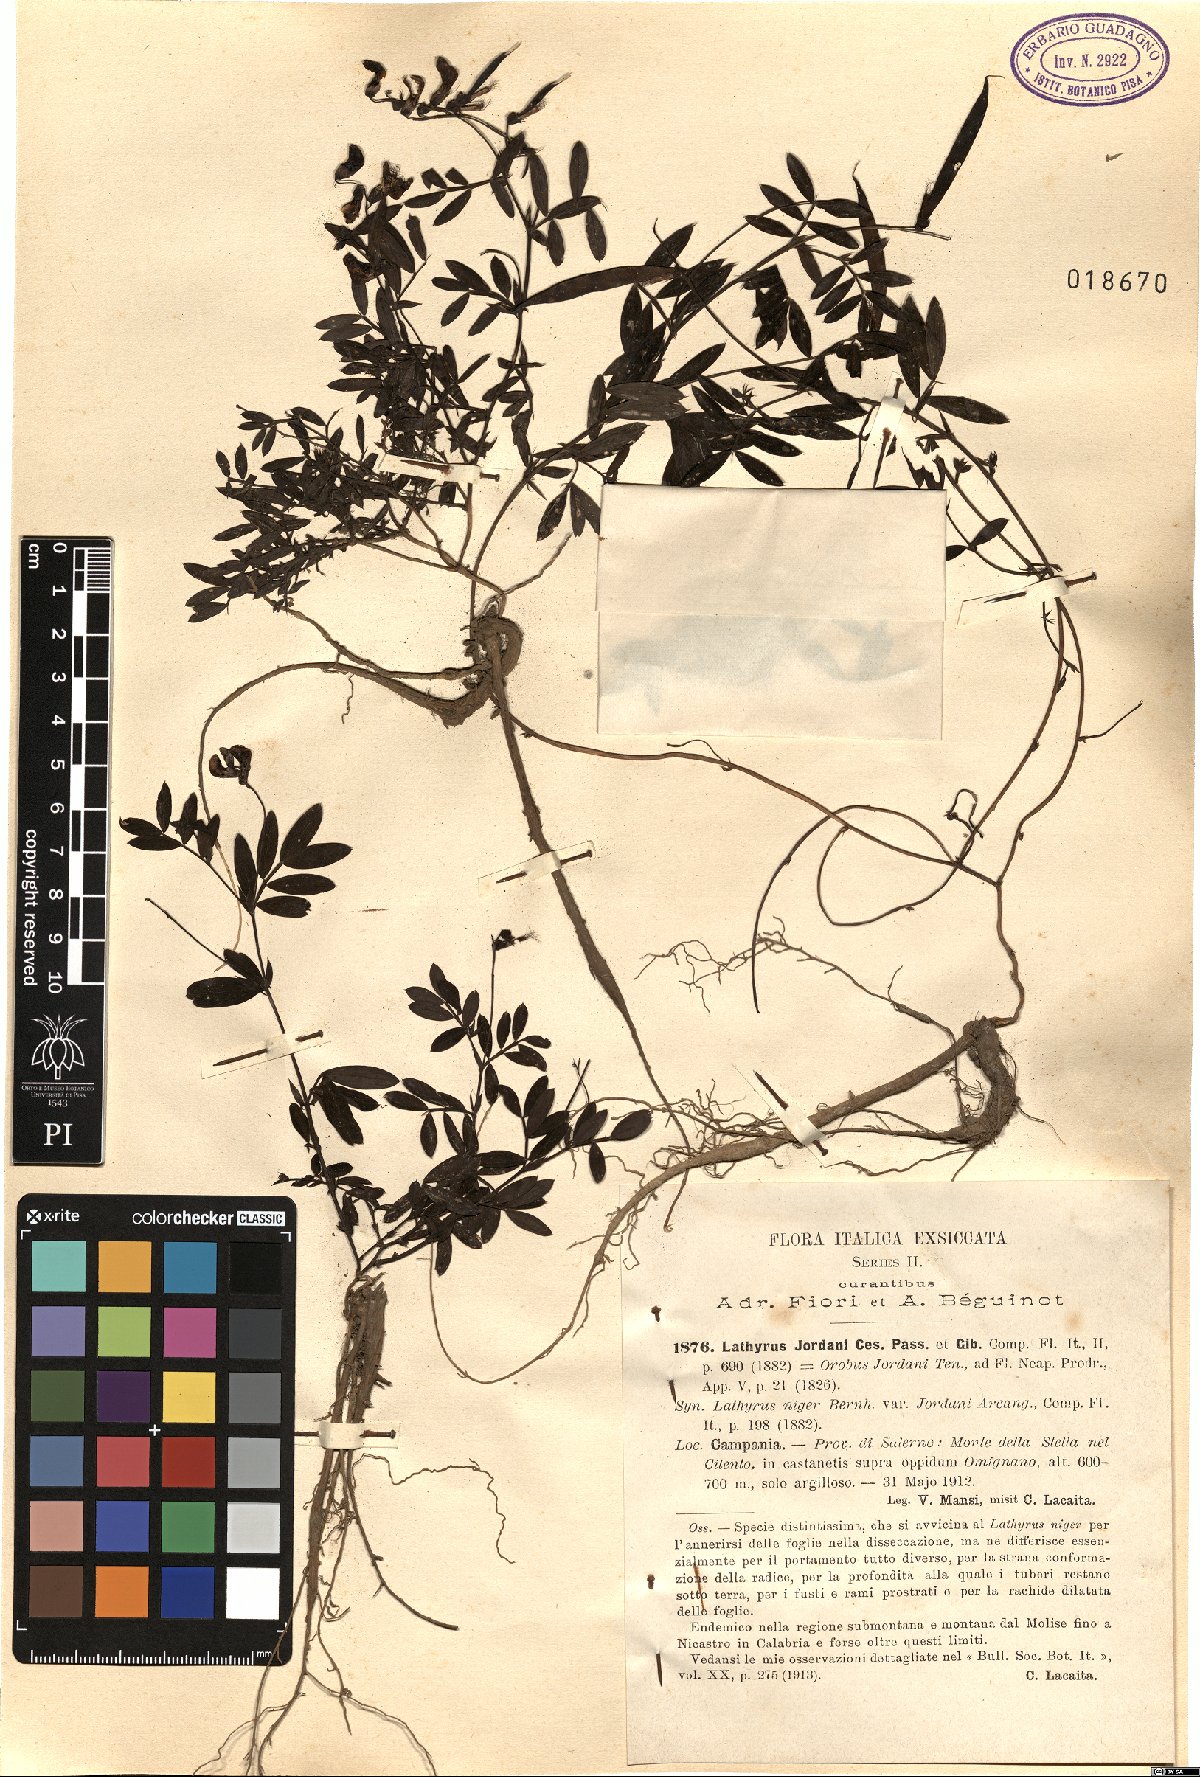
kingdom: Plantae
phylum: Tracheophyta
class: Magnoliopsida
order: Fabales
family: Fabaceae
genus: Lathyrus
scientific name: Lathyrus niger
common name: Black pea
